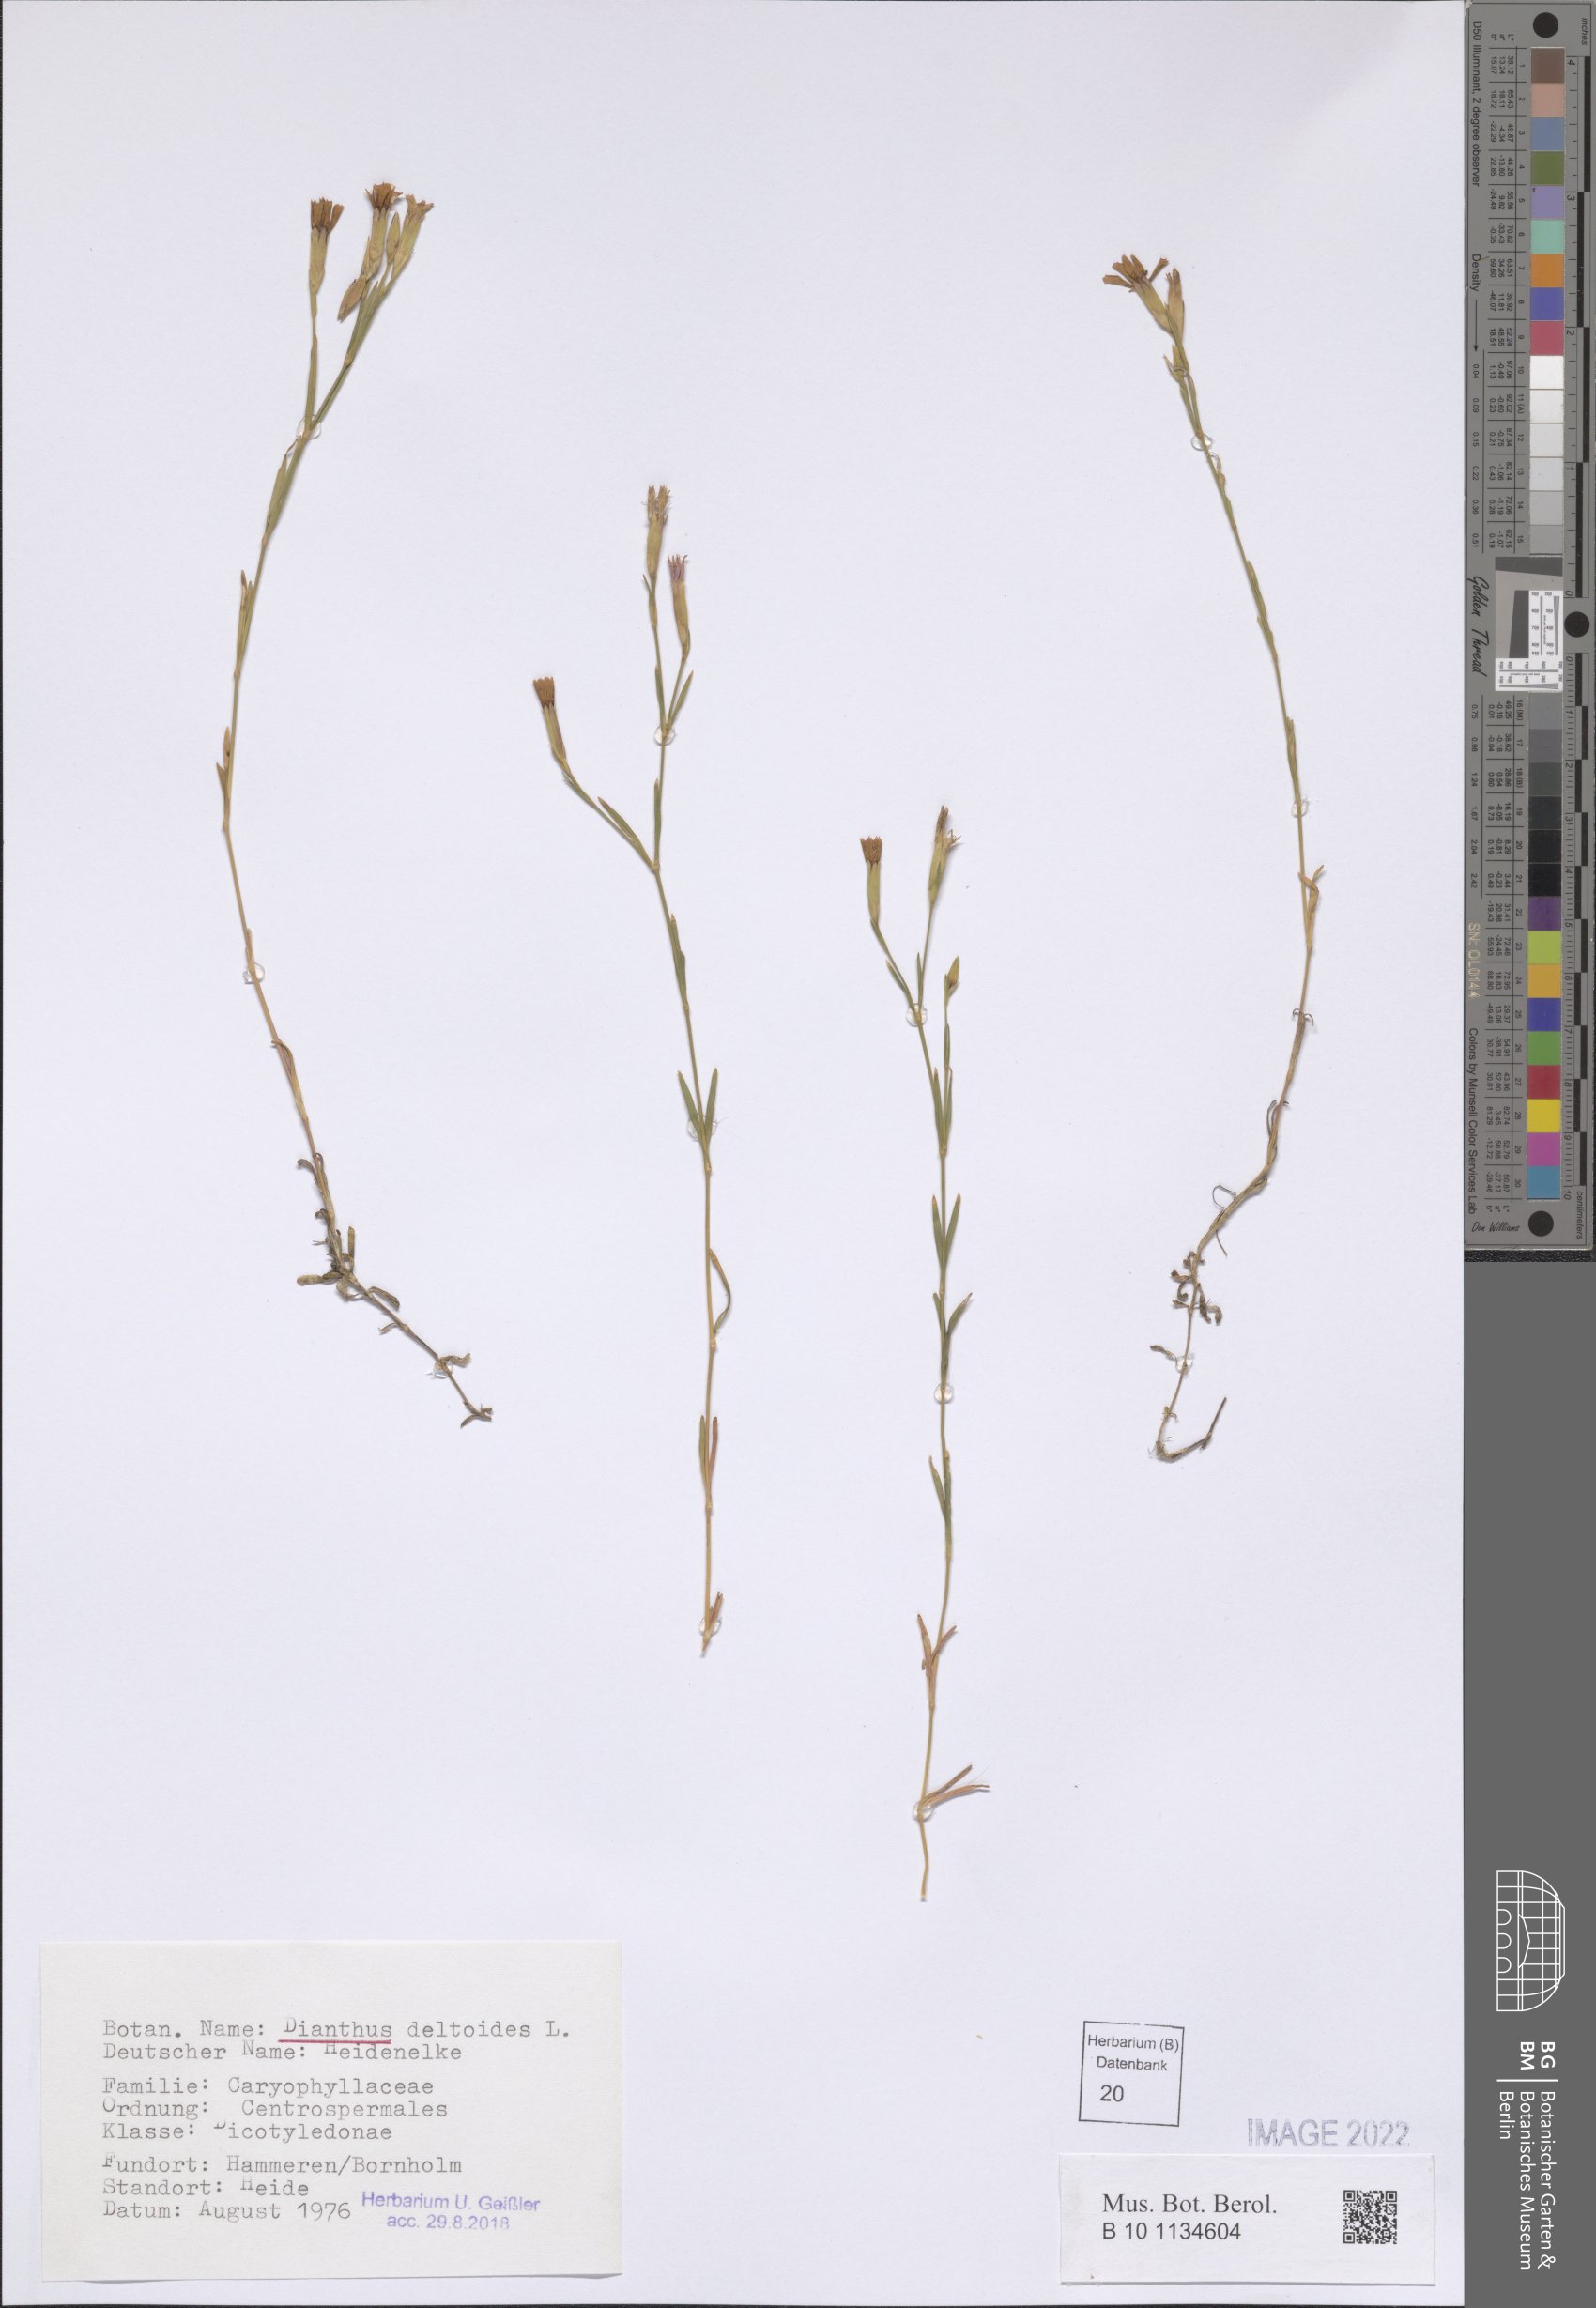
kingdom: Plantae
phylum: Tracheophyta
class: Magnoliopsida
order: Caryophyllales
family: Caryophyllaceae
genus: Dianthus
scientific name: Dianthus deltoides
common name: Maiden pink
